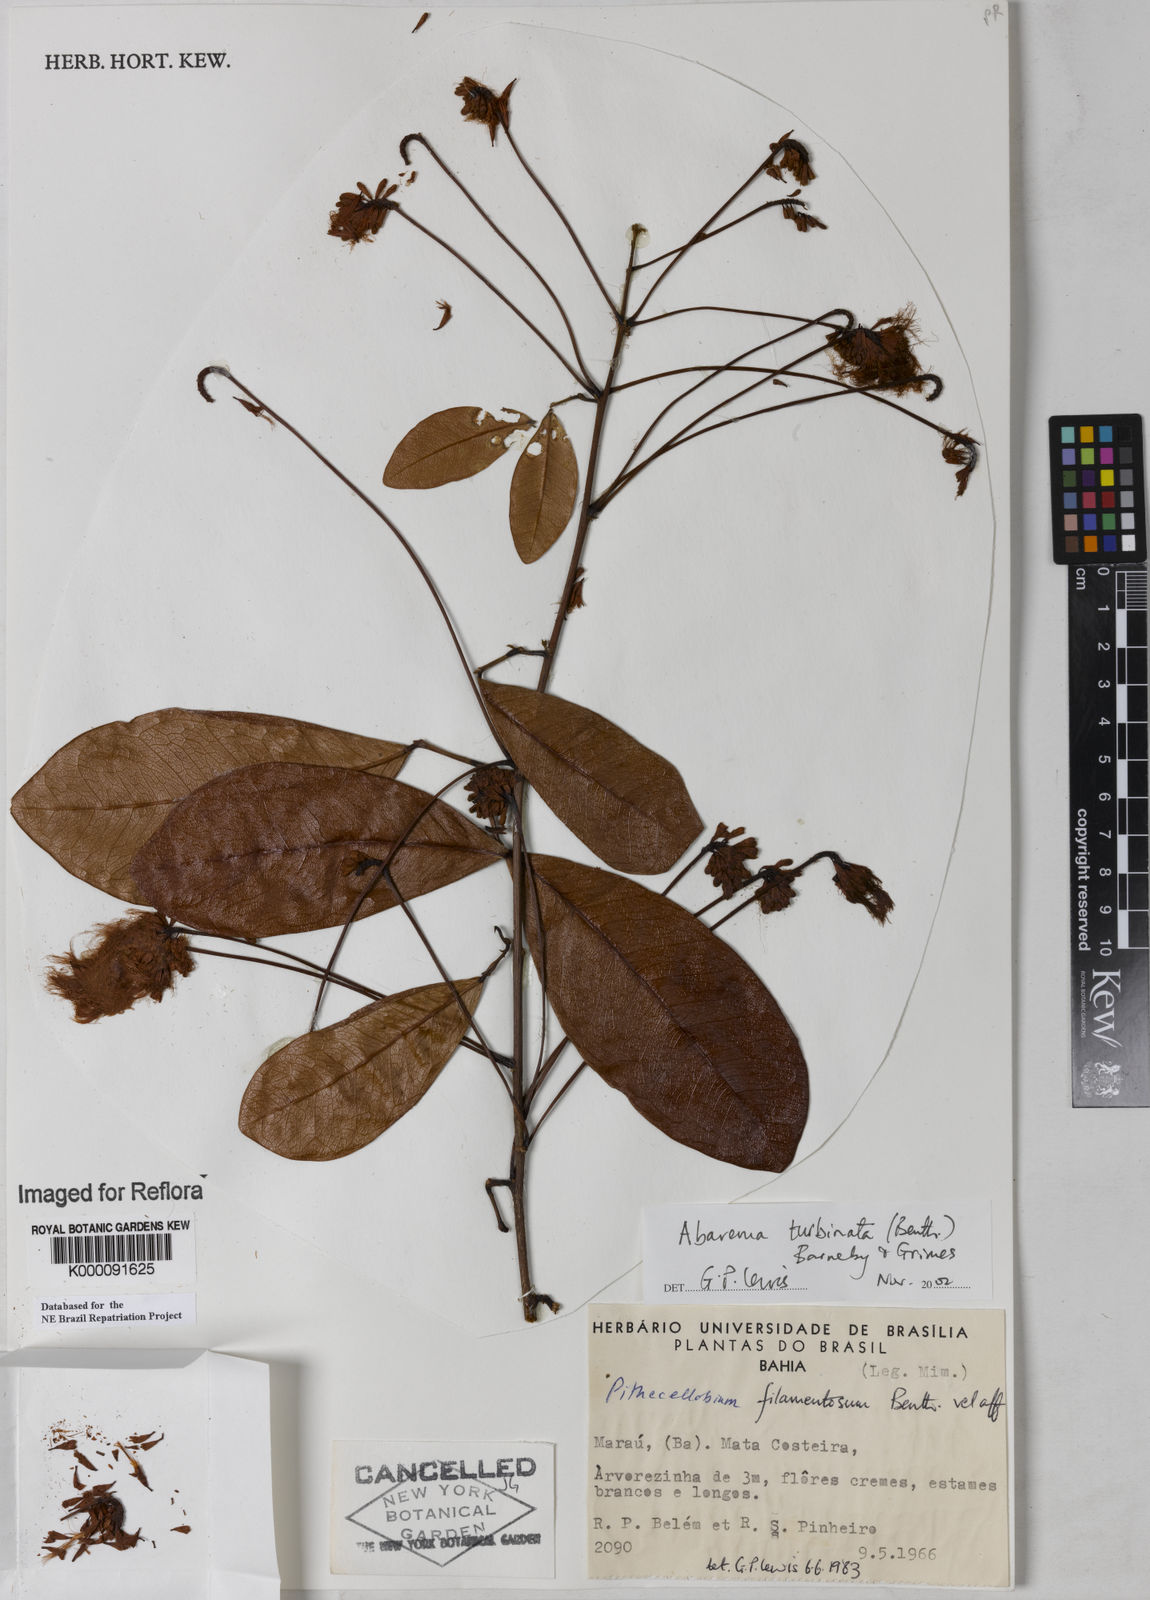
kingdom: Plantae
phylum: Tracheophyta
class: Magnoliopsida
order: Fabales
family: Fabaceae
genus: Jupunba
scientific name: Jupunba turbinata
